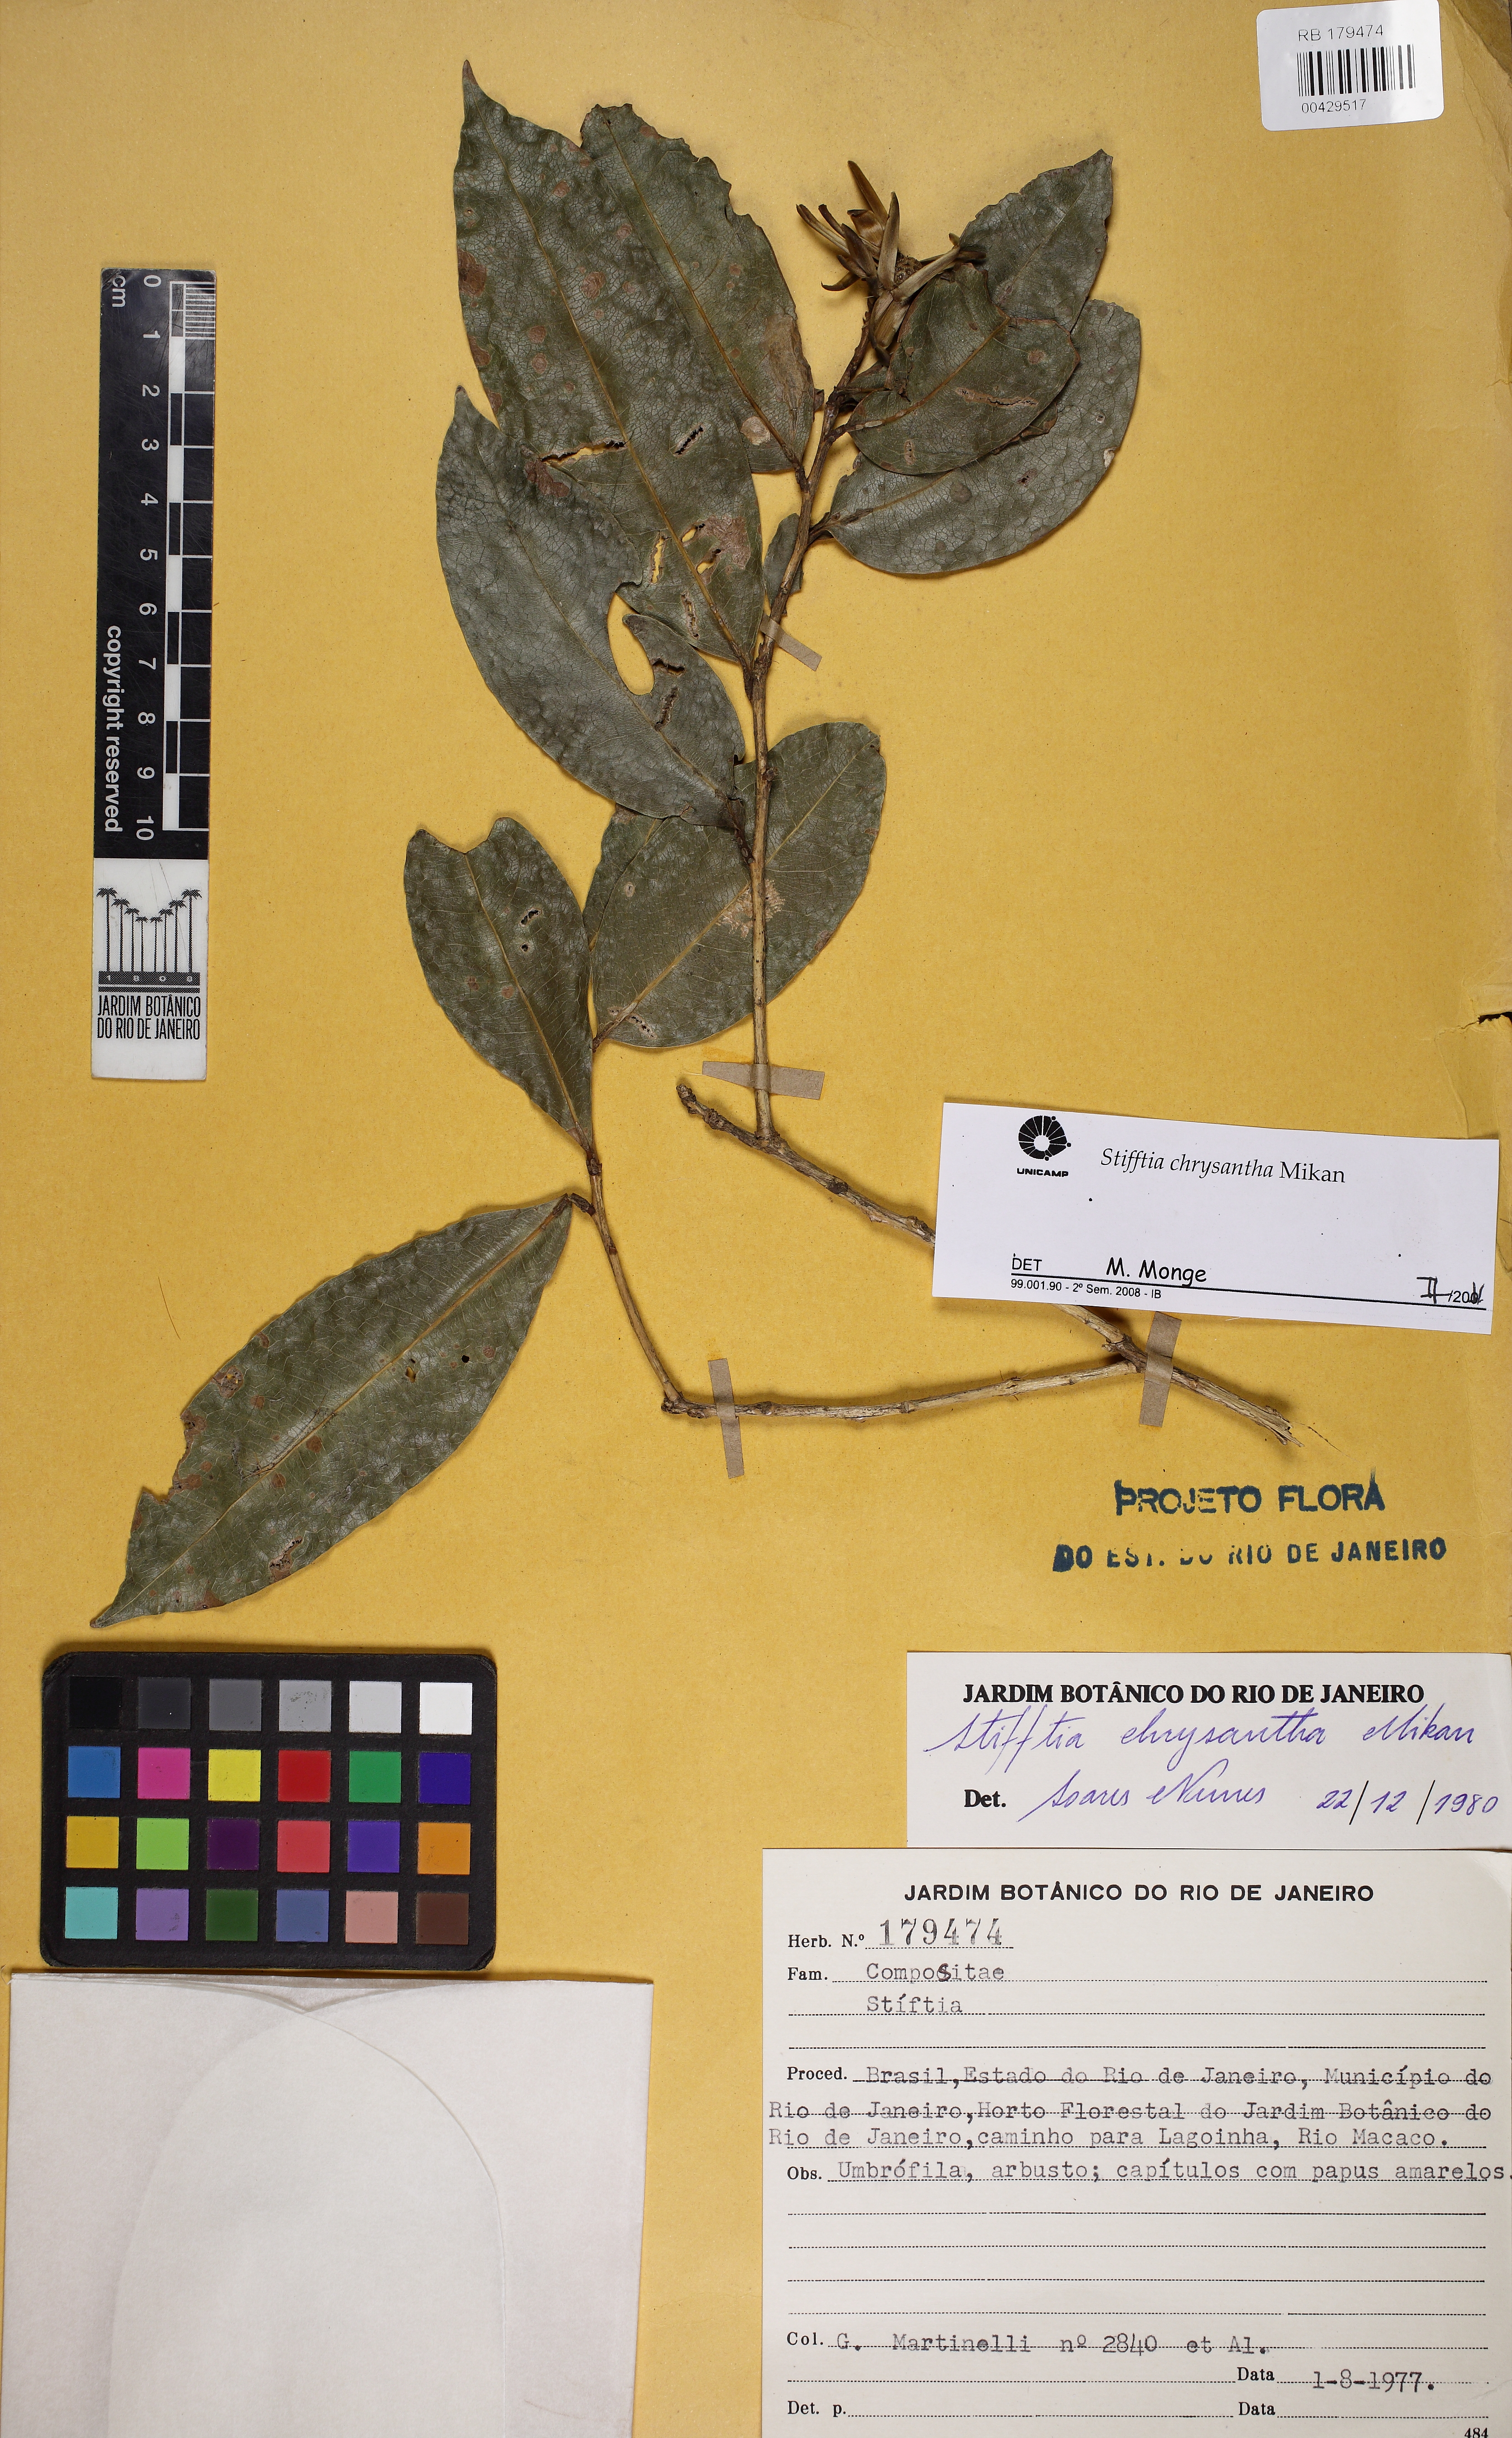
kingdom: Plantae
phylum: Tracheophyta
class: Magnoliopsida
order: Asterales
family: Asteraceae
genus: Stifftia
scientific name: Stifftia chrysantha
